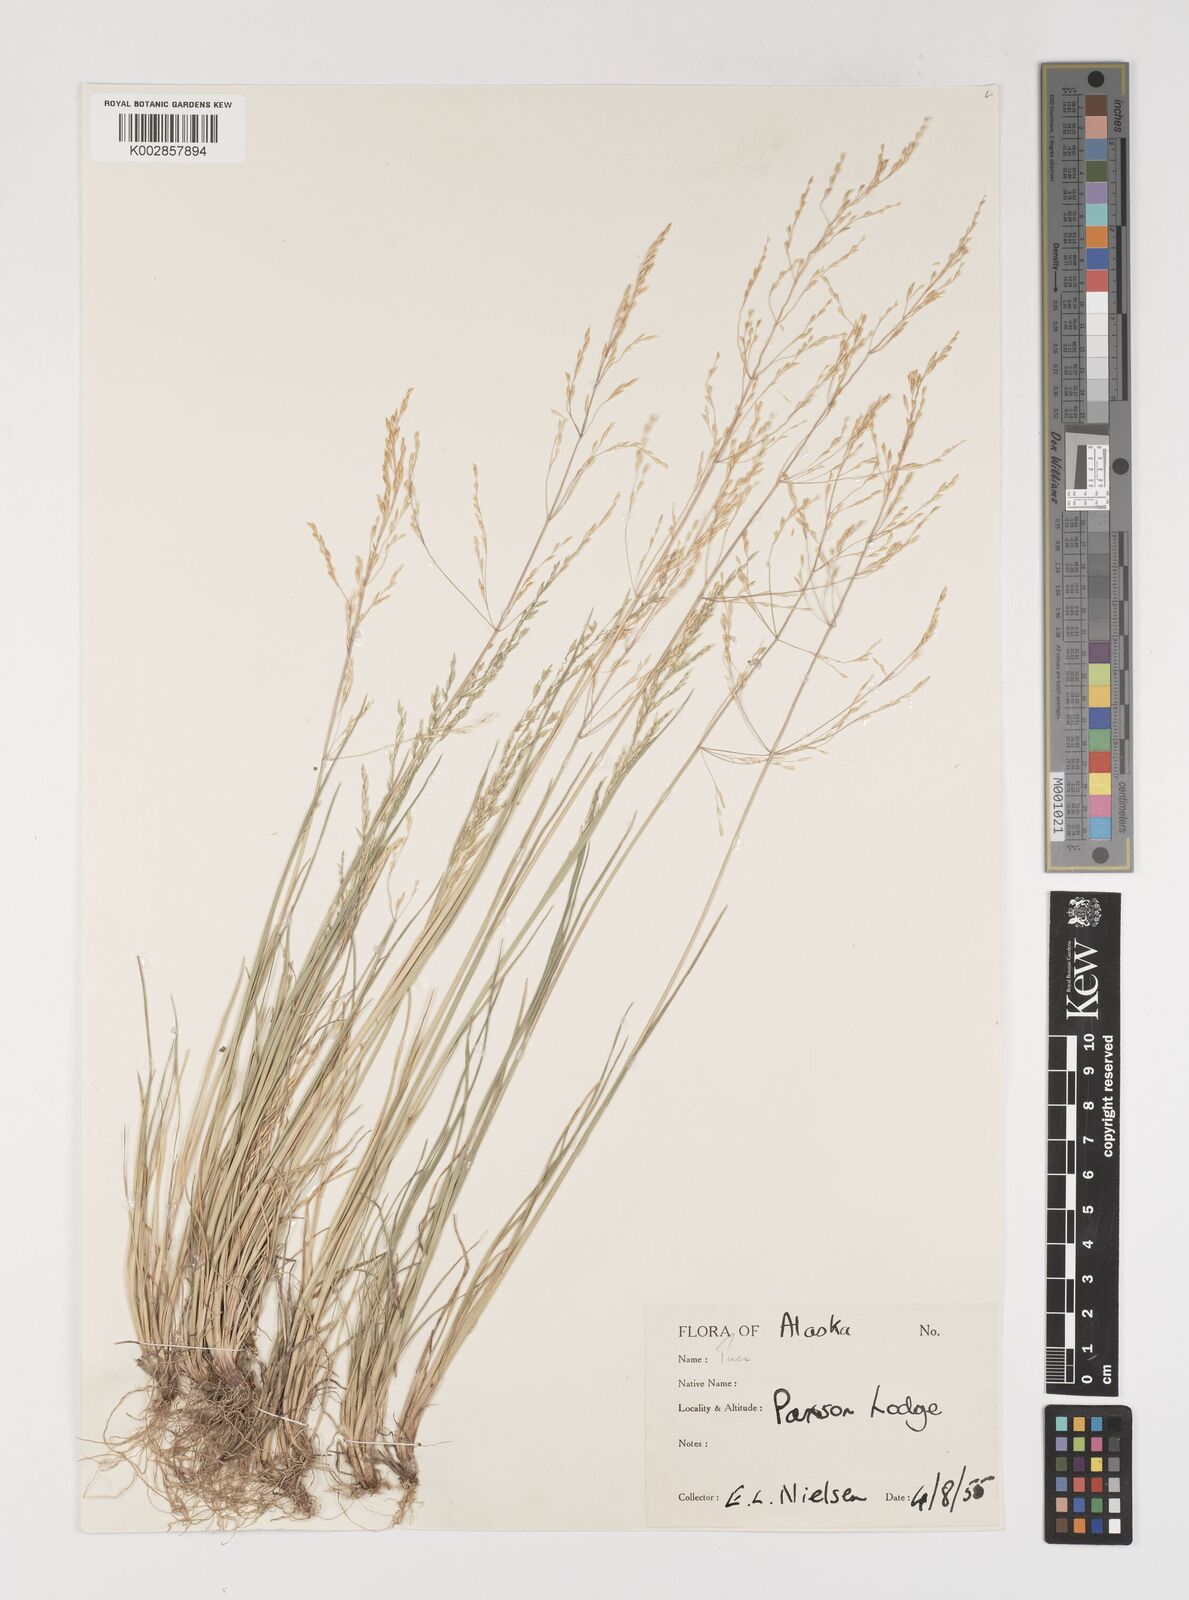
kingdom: Plantae
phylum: Tracheophyta
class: Liliopsida
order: Poales
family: Poaceae
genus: Puccinellia
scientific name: Puccinellia
